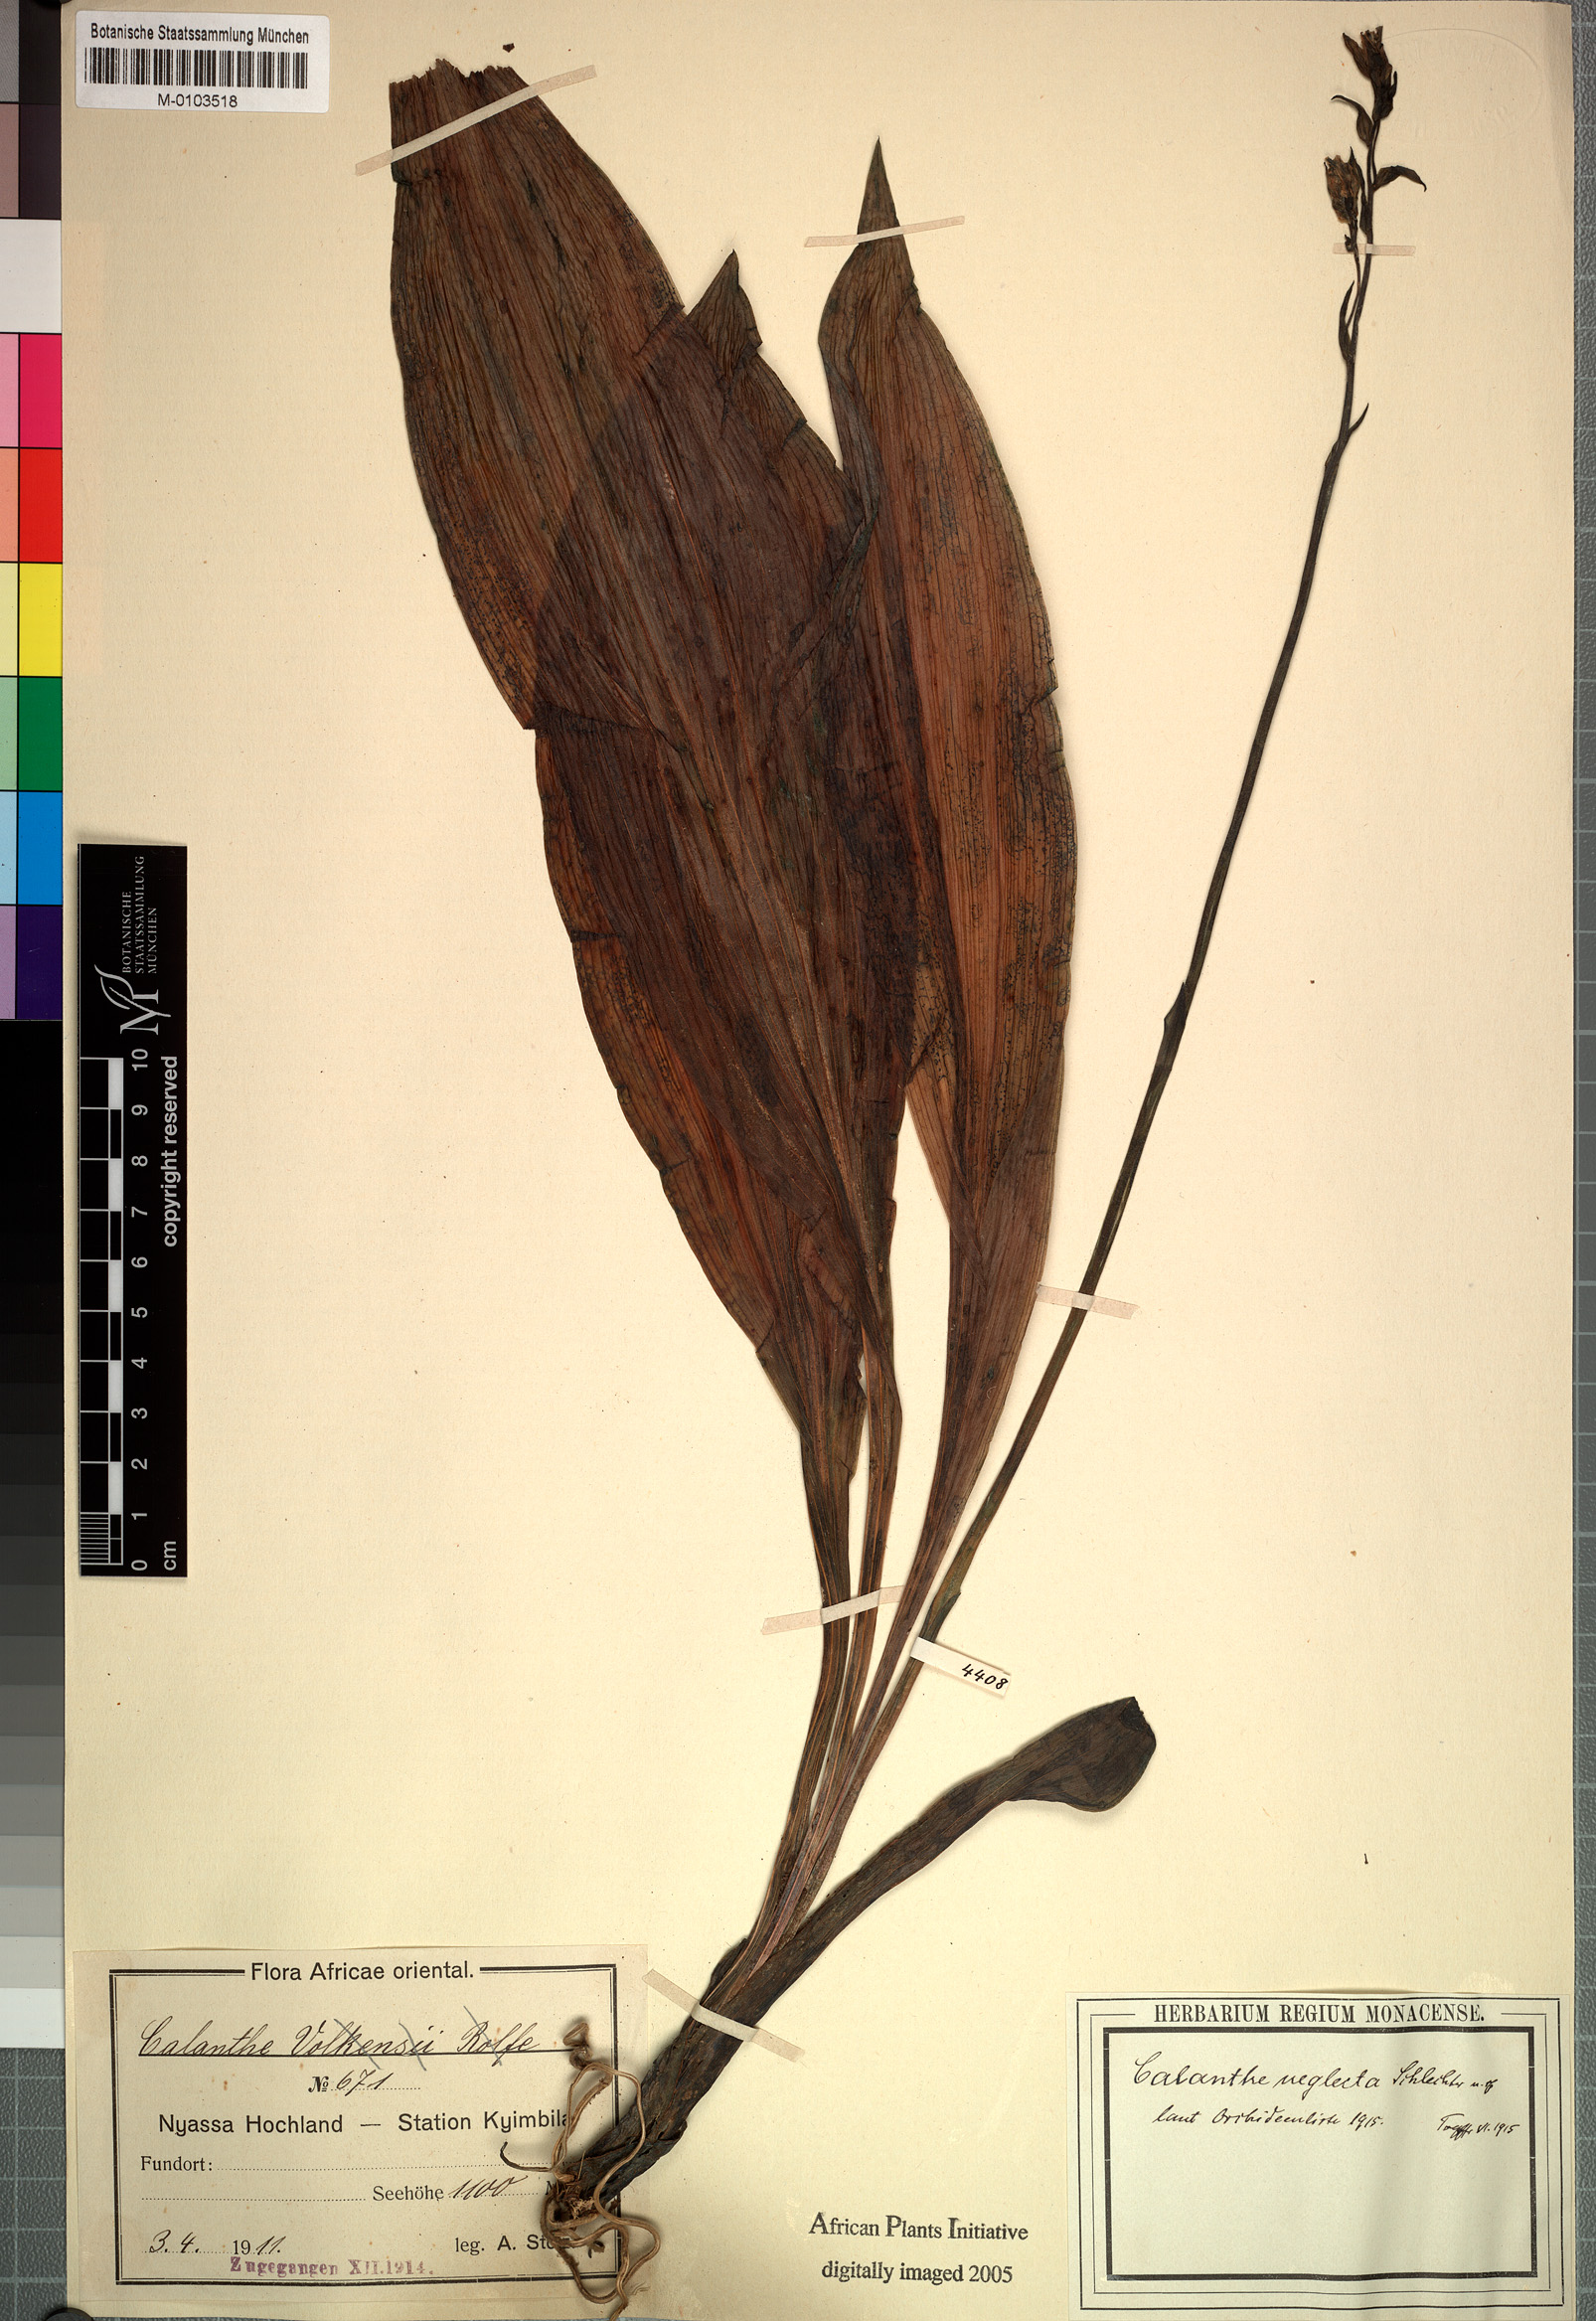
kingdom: Plantae
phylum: Tracheophyta
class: Liliopsida
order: Asparagales
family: Orchidaceae
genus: Calanthe
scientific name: Calanthe sylvatica
